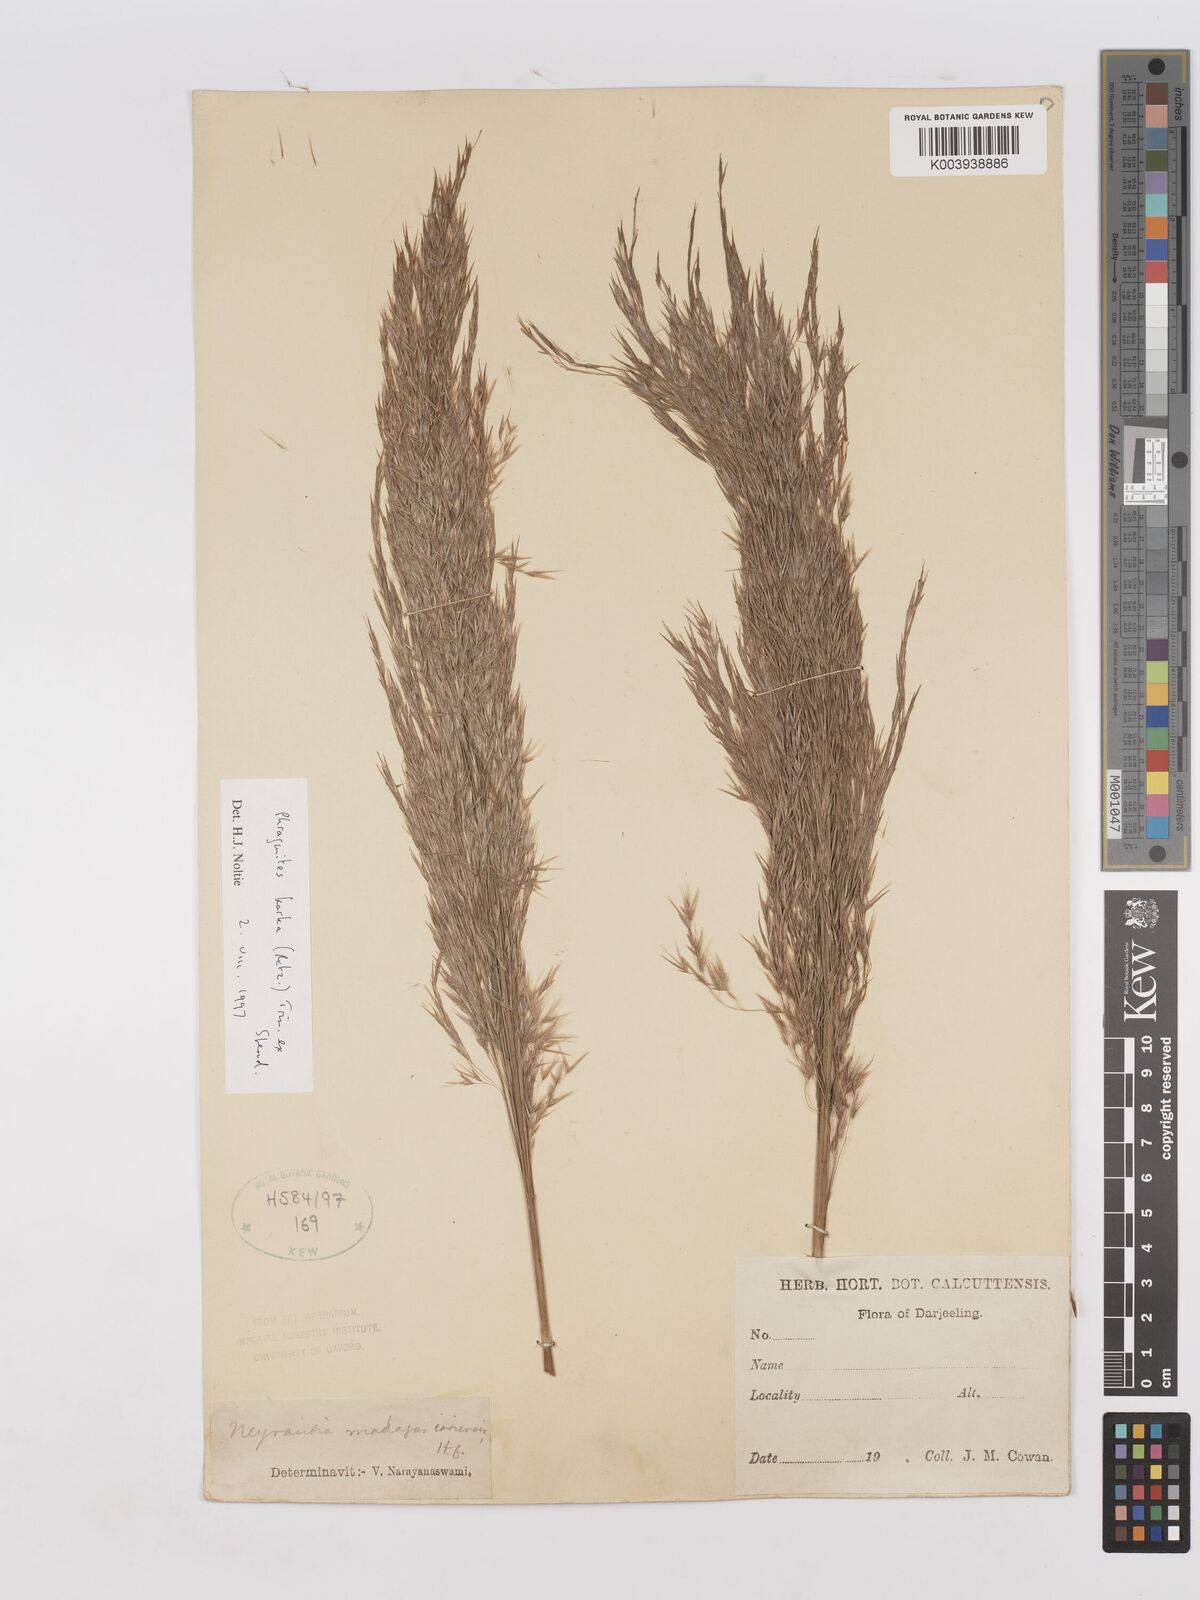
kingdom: Plantae
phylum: Tracheophyta
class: Liliopsida
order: Poales
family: Poaceae
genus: Phragmites
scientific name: Phragmites karka
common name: Tropical reed
